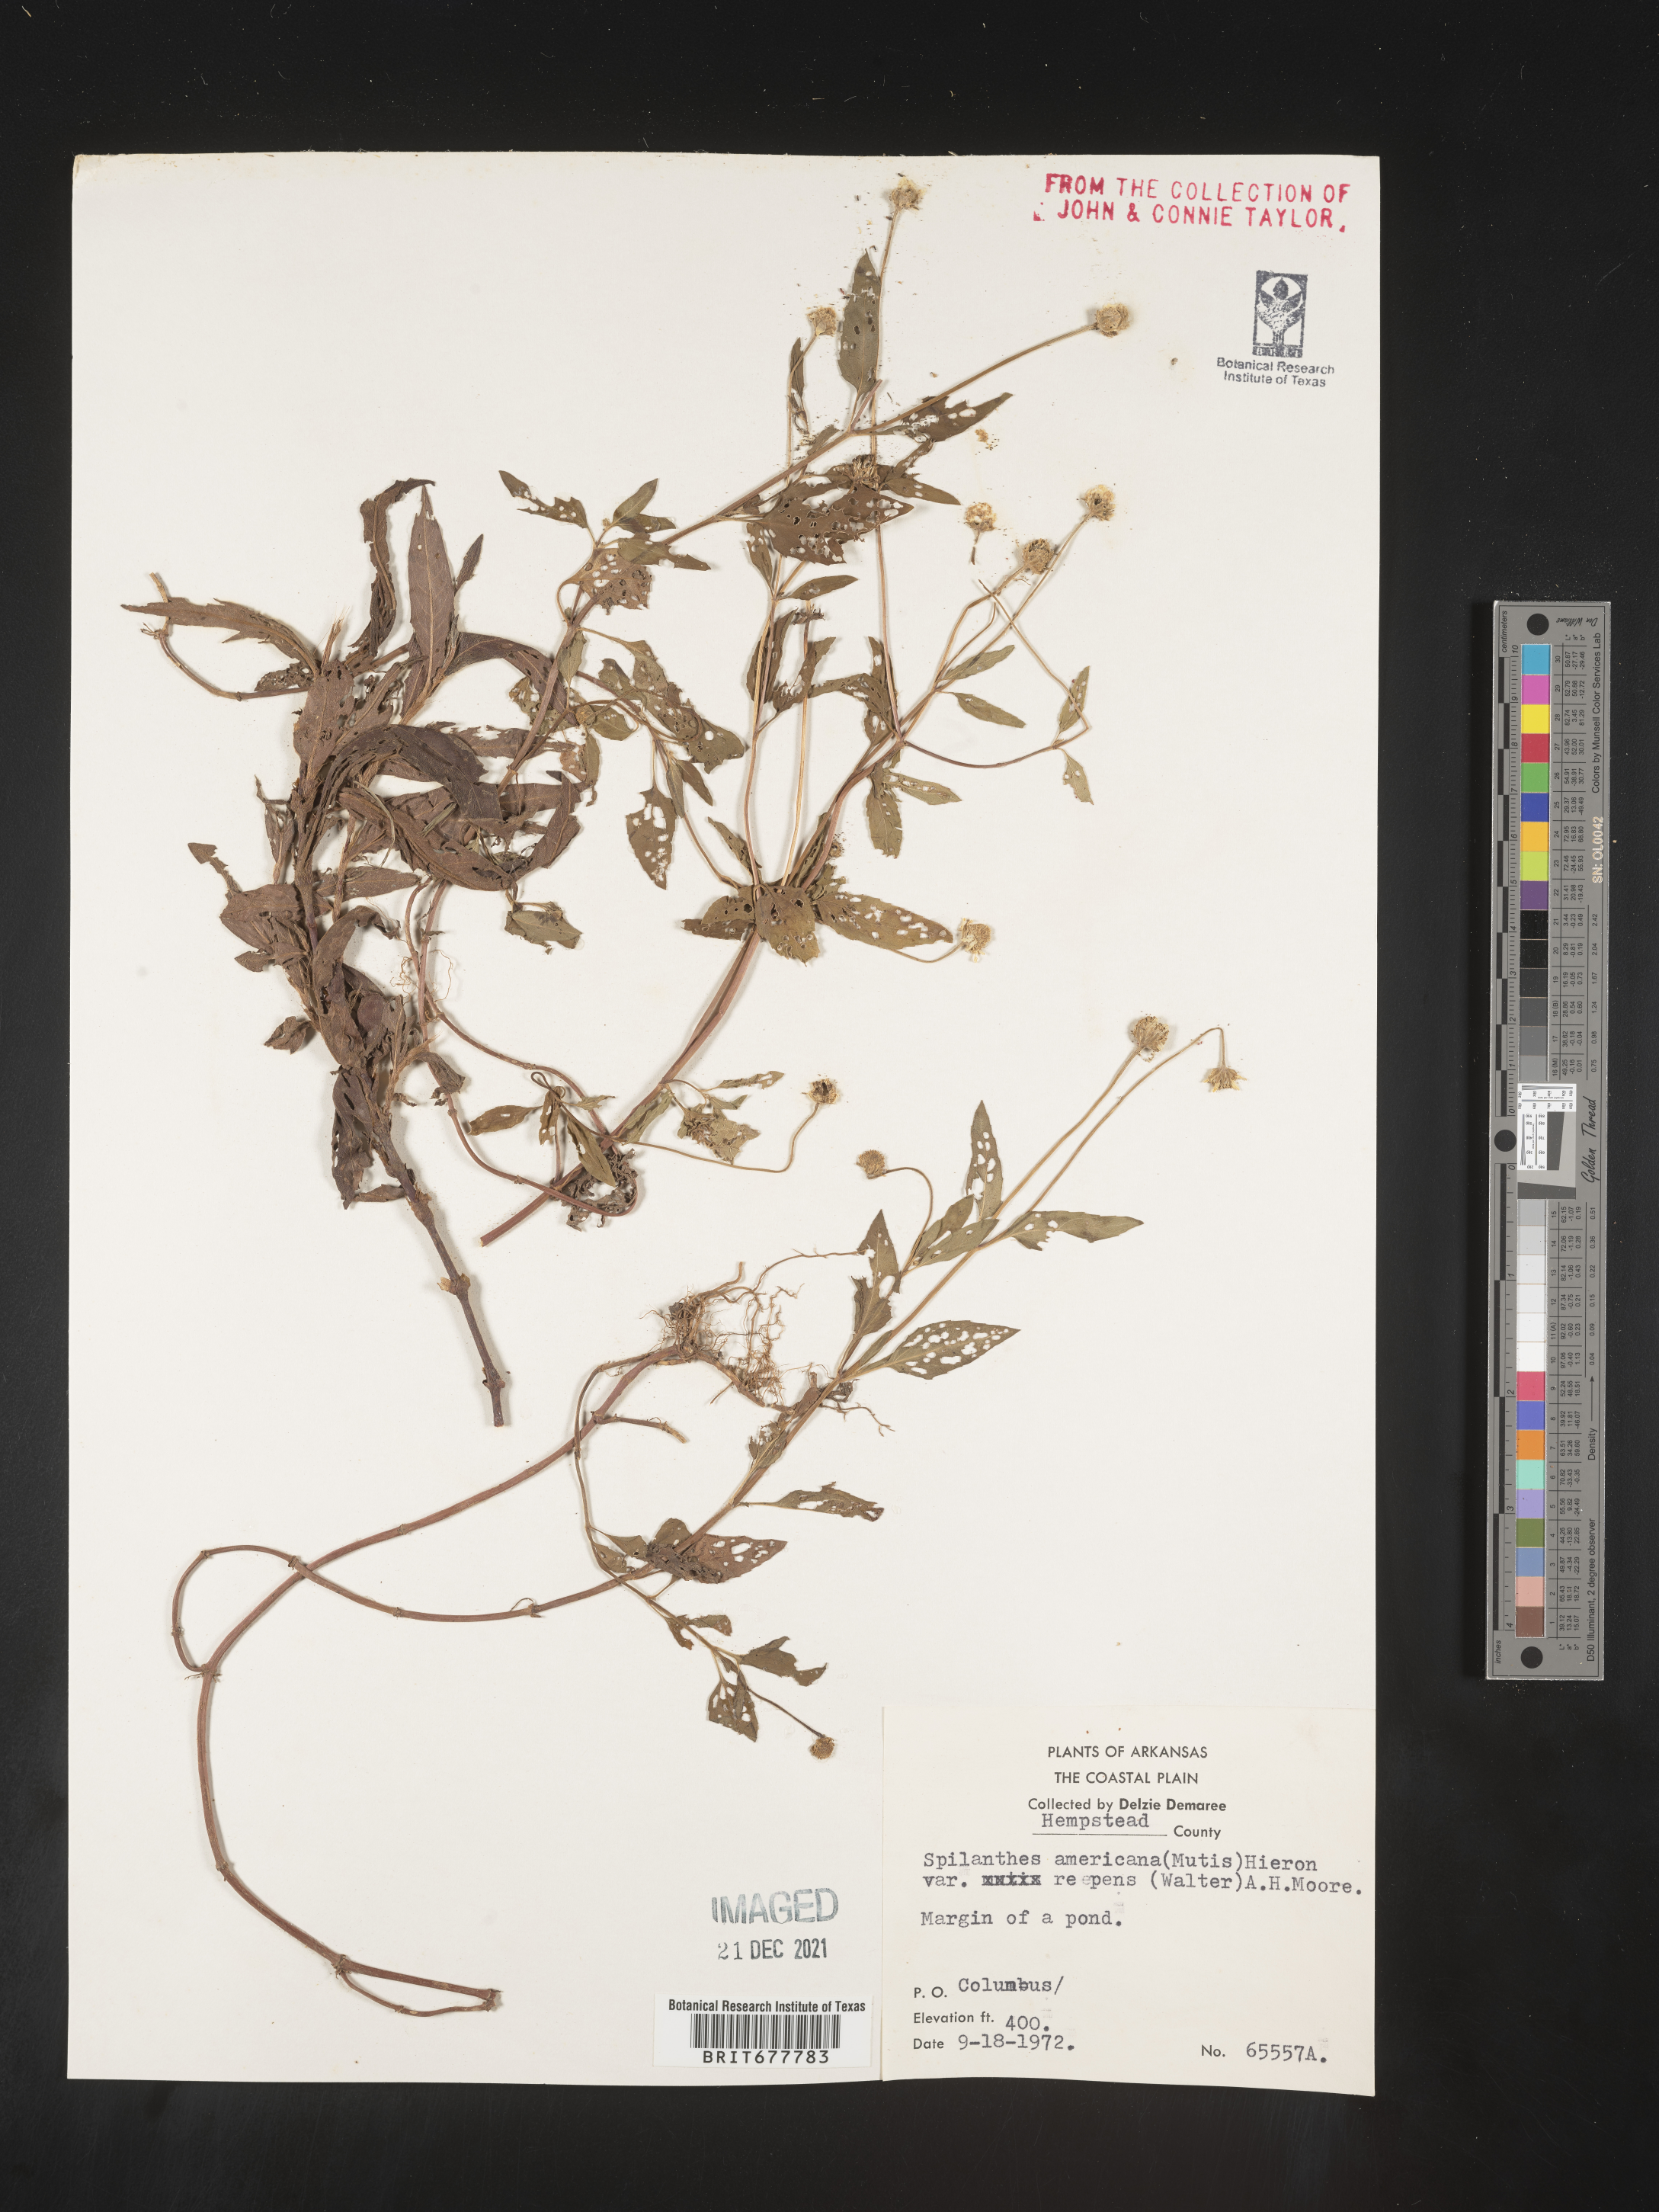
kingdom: Plantae
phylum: Tracheophyta
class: Magnoliopsida
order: Asterales
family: Asteraceae
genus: Spilanthes
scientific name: Spilanthes
